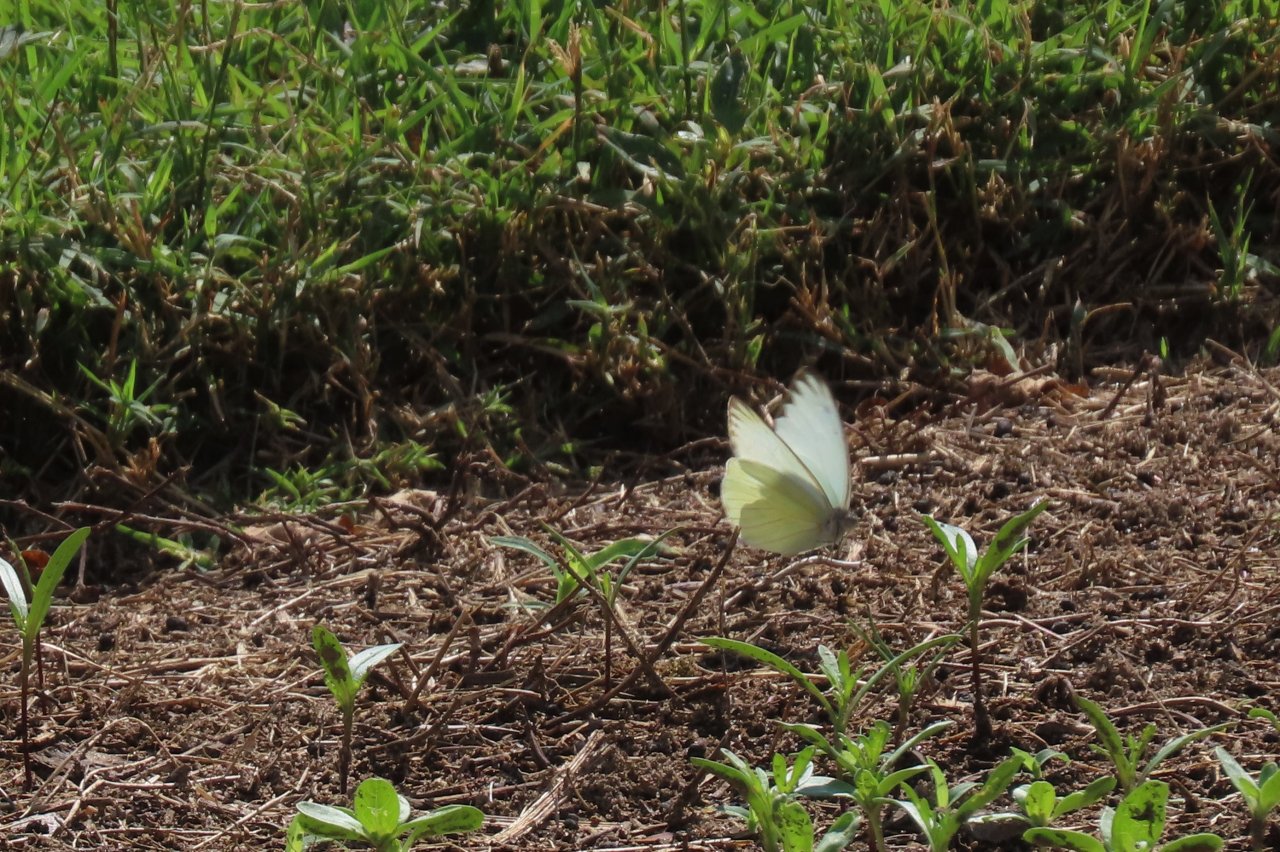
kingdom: Animalia
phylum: Arthropoda
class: Insecta
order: Lepidoptera
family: Pieridae
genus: Ascia
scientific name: Ascia monuste
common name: Great Southern White
